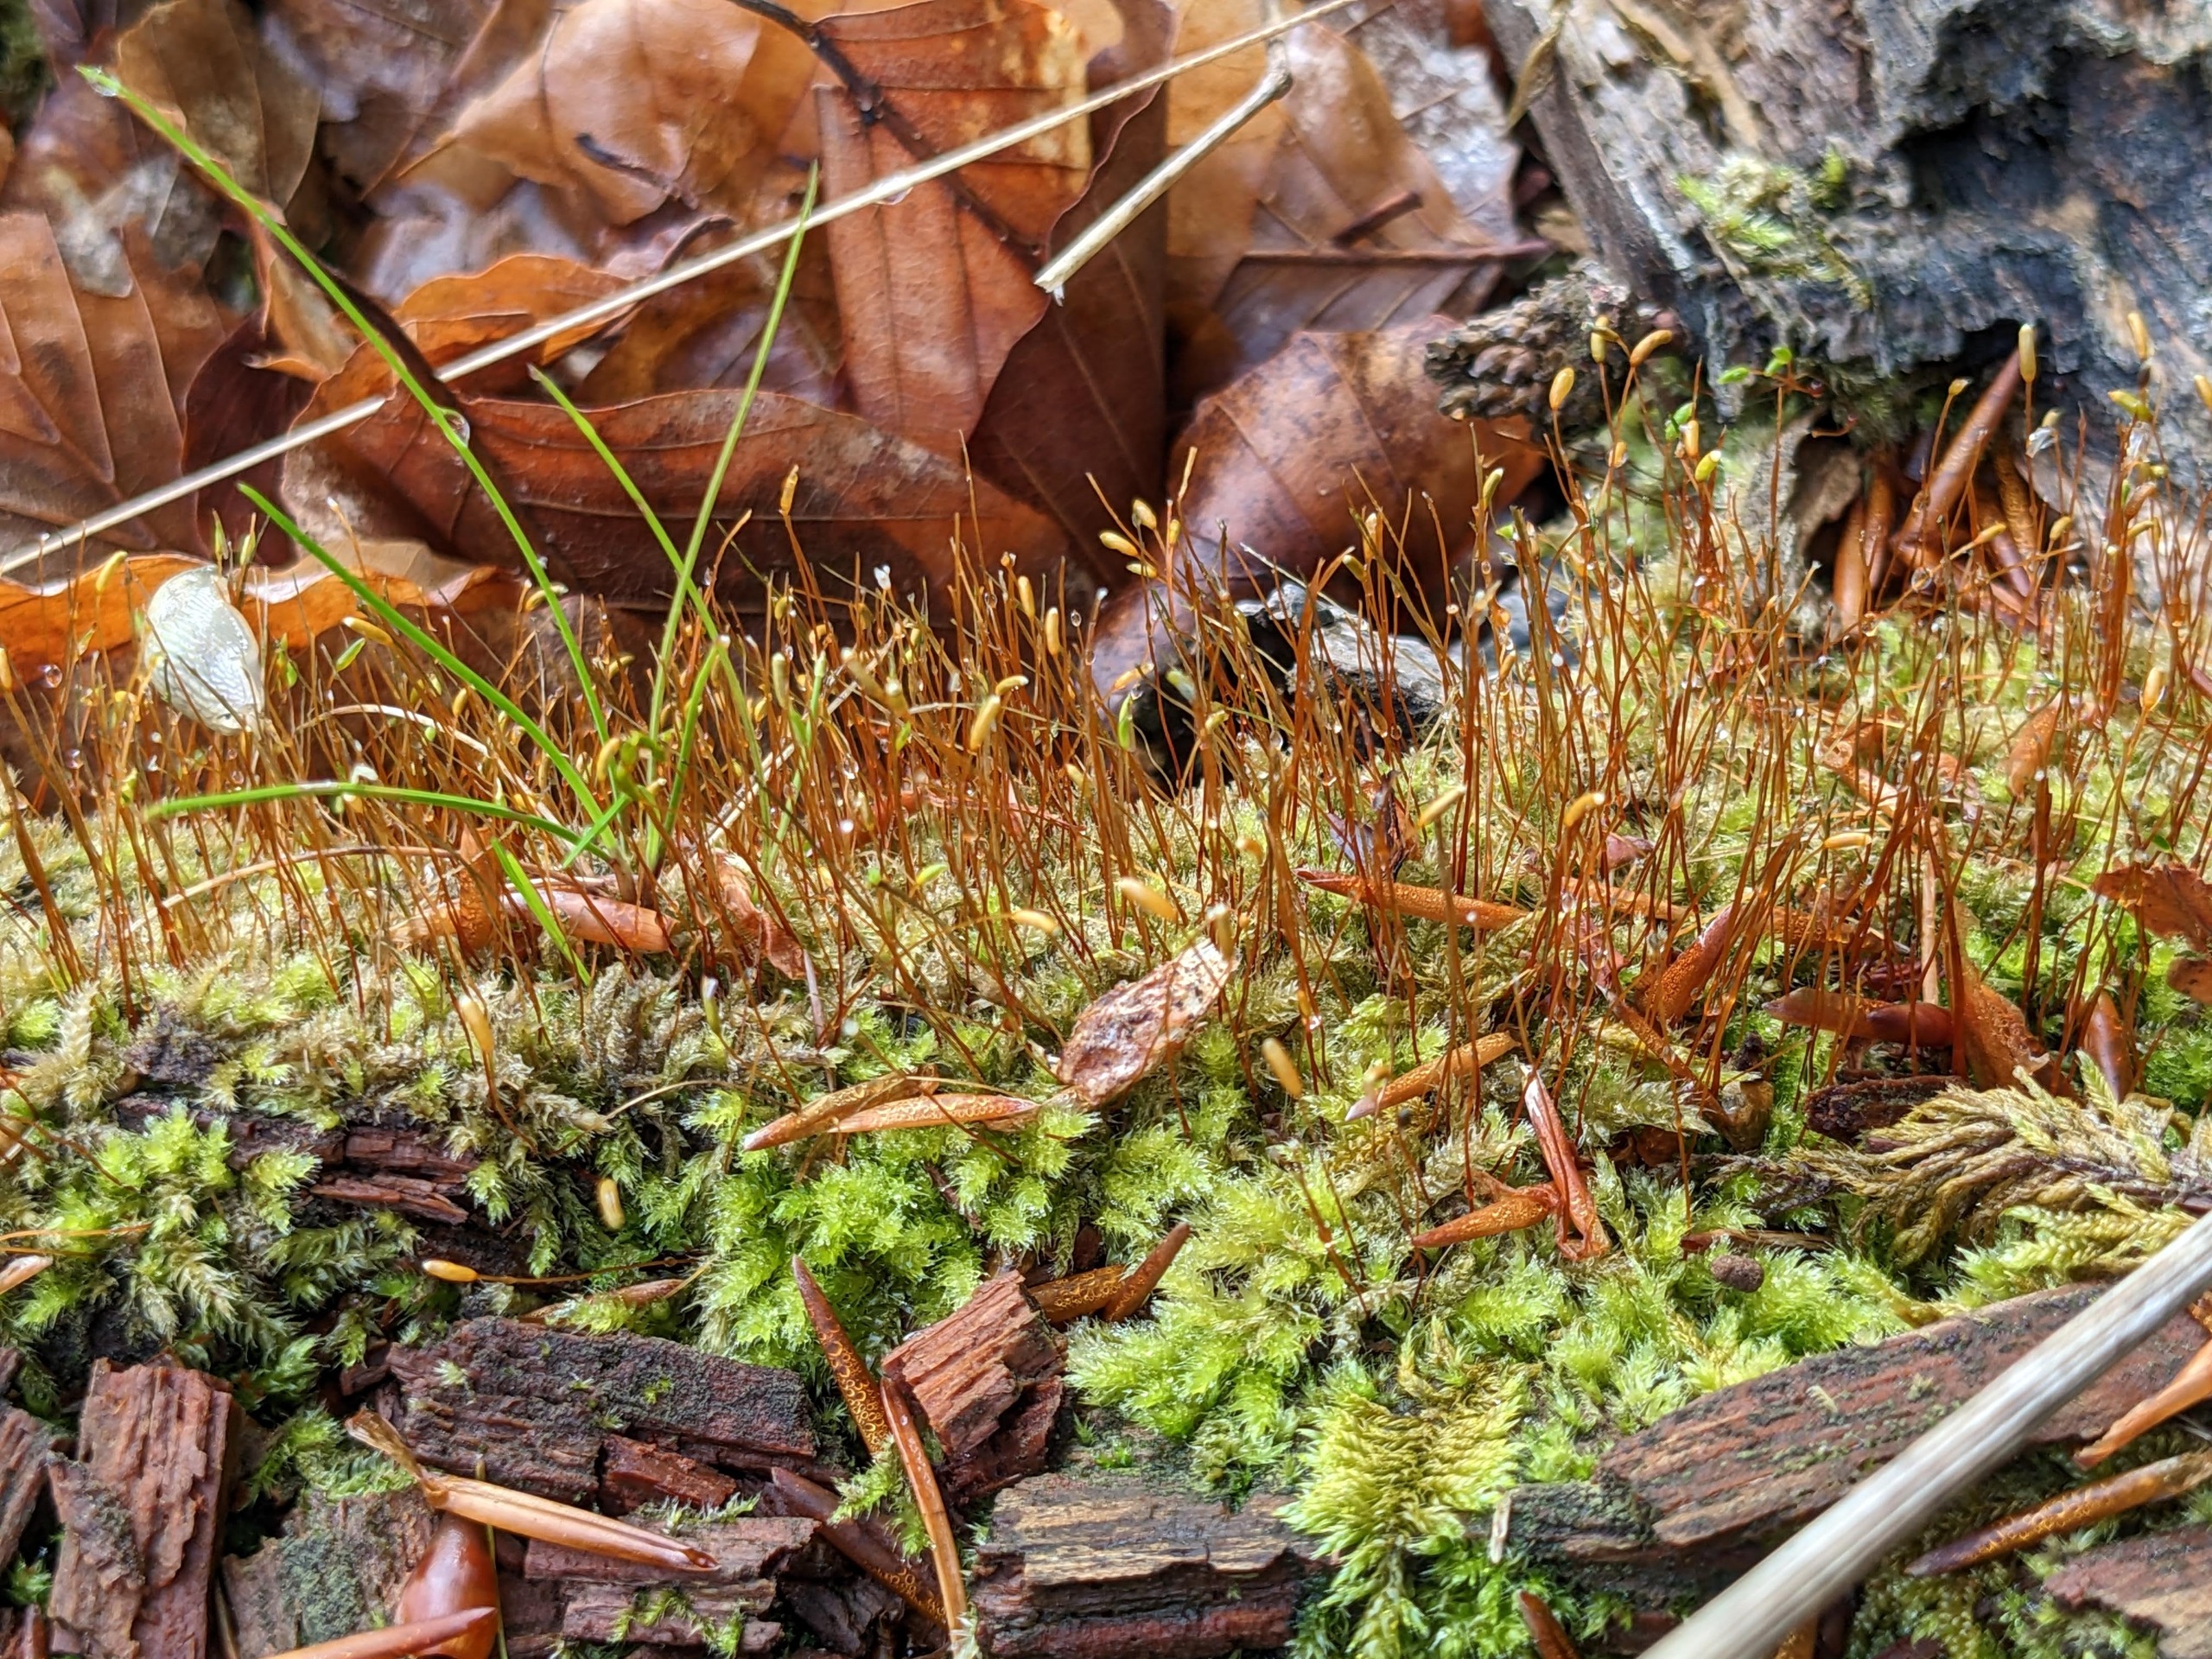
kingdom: Plantae
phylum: Bryophyta
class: Bryopsida
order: Hypnales
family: Plagiotheciaceae
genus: Herzogiella
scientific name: Herzogiella seligeri
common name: Stub-pølsekapsel
